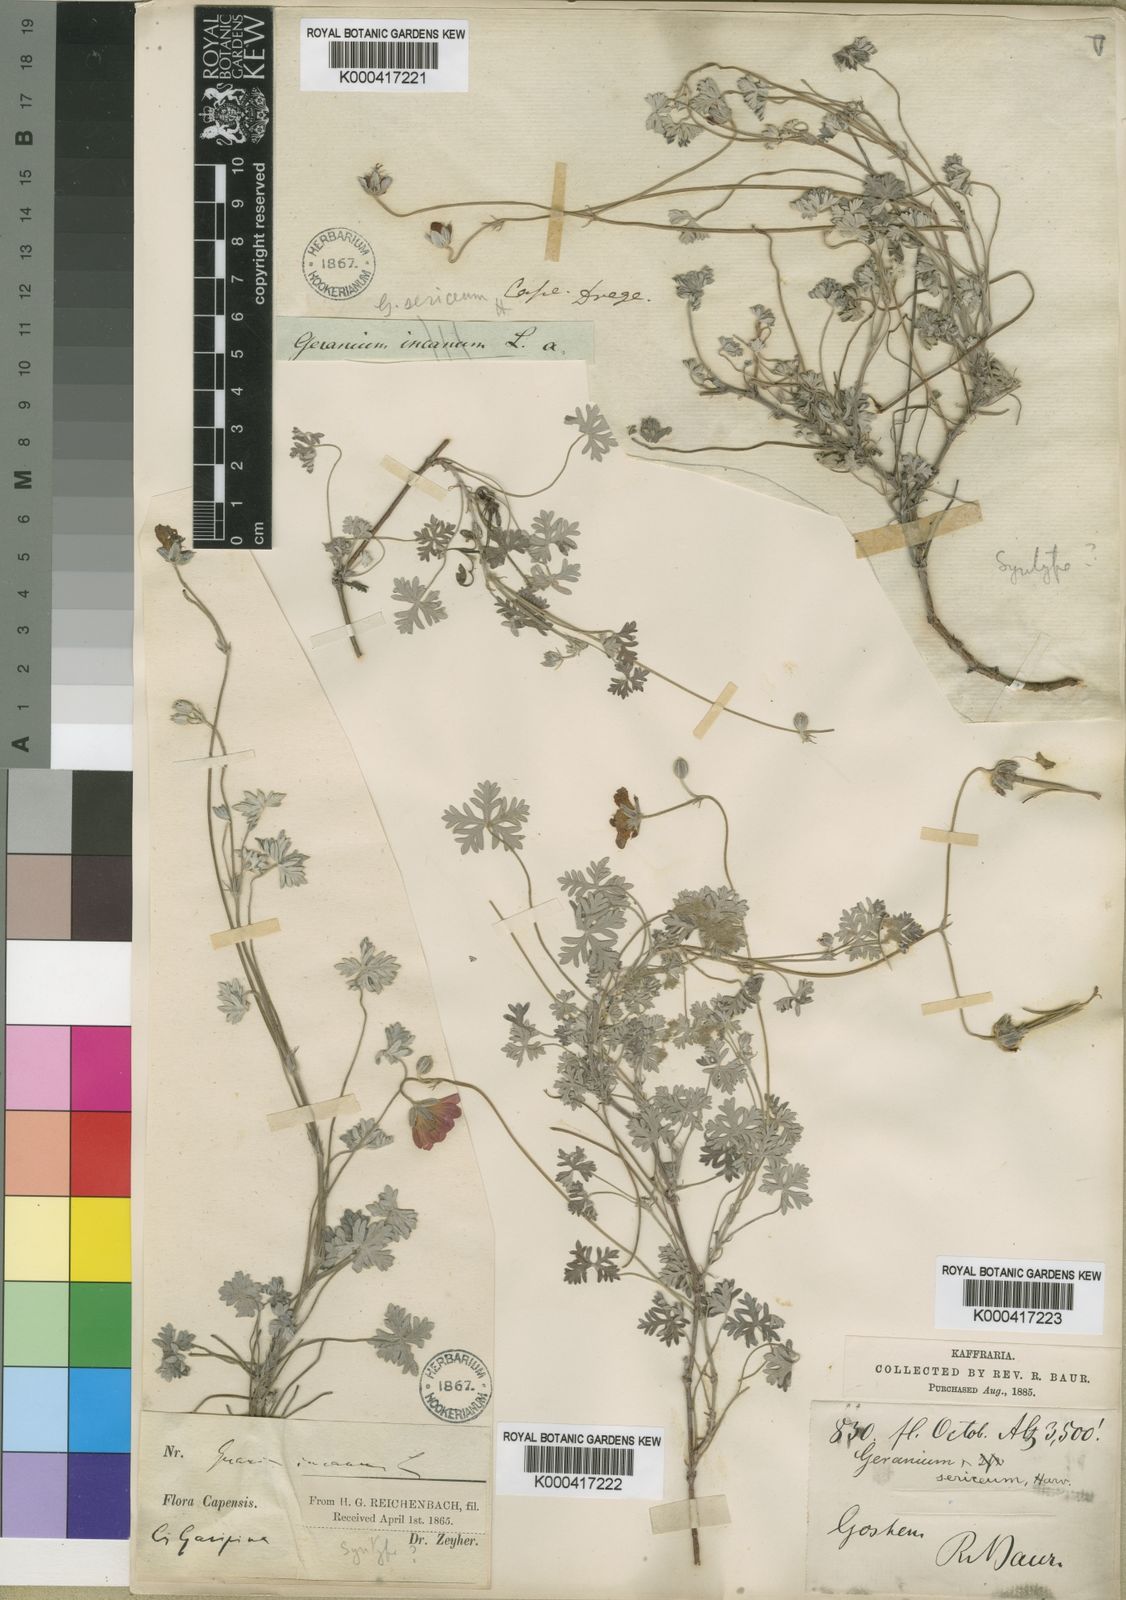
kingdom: Plantae
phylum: Tracheophyta
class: Magnoliopsida
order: Geraniales
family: Geraniaceae
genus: Geranium
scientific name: Geranium harveyi
